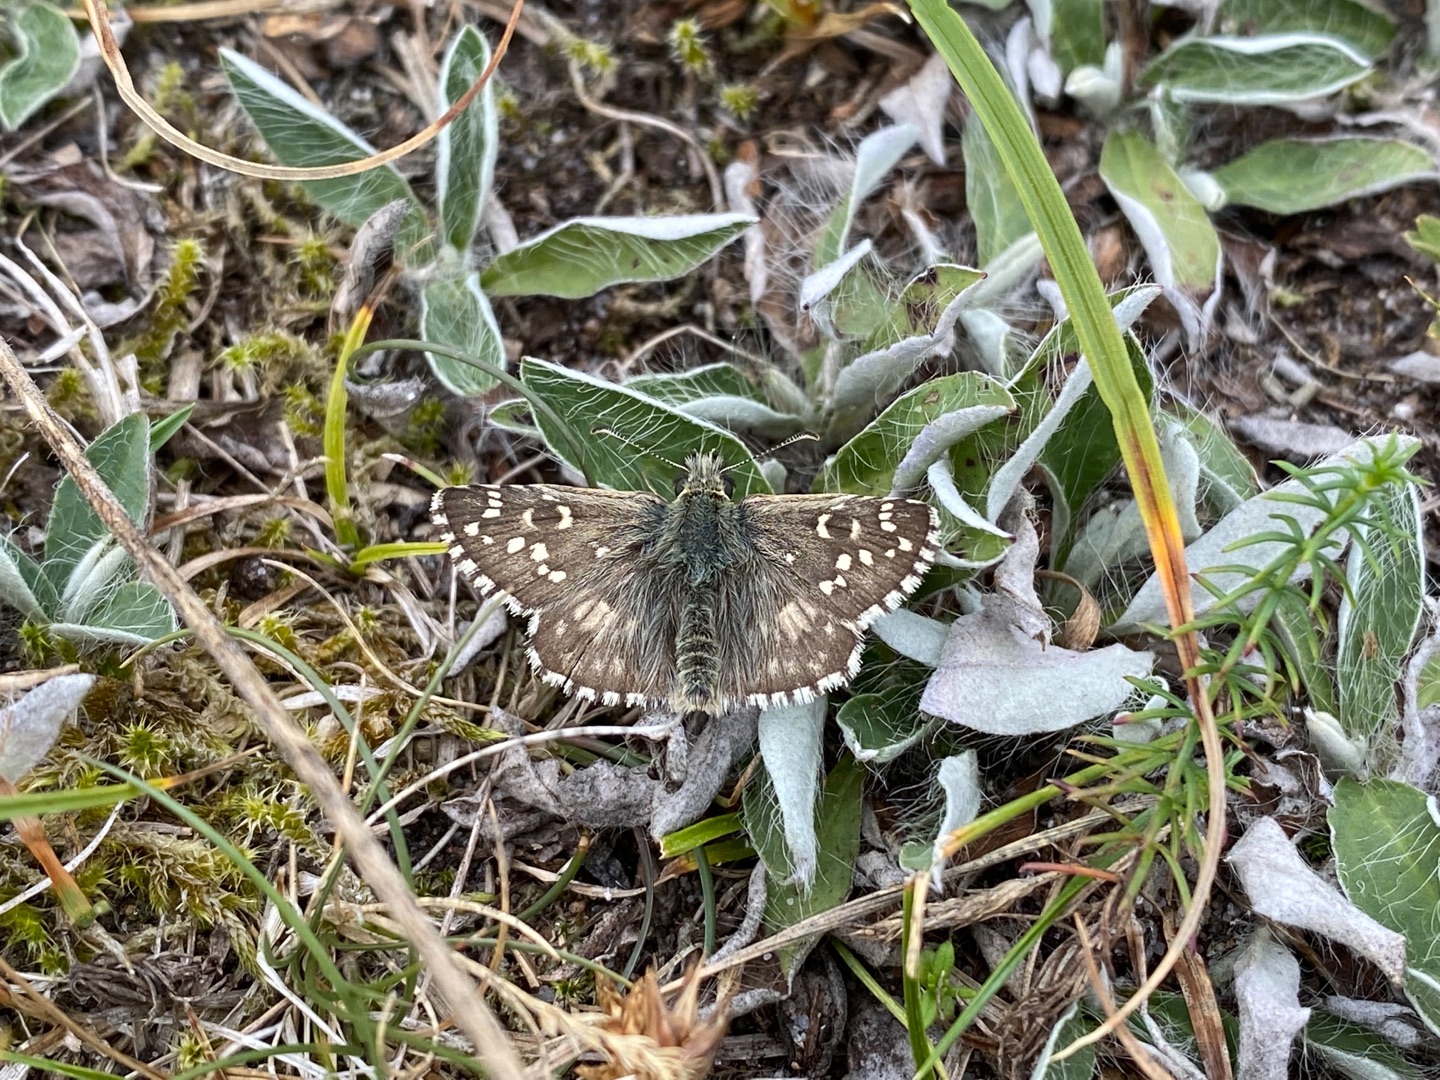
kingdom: Animalia
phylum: Arthropoda
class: Insecta
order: Lepidoptera
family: Hesperiidae
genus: Pyrgus
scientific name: Pyrgus armoricanus
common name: Fransk bredpande
